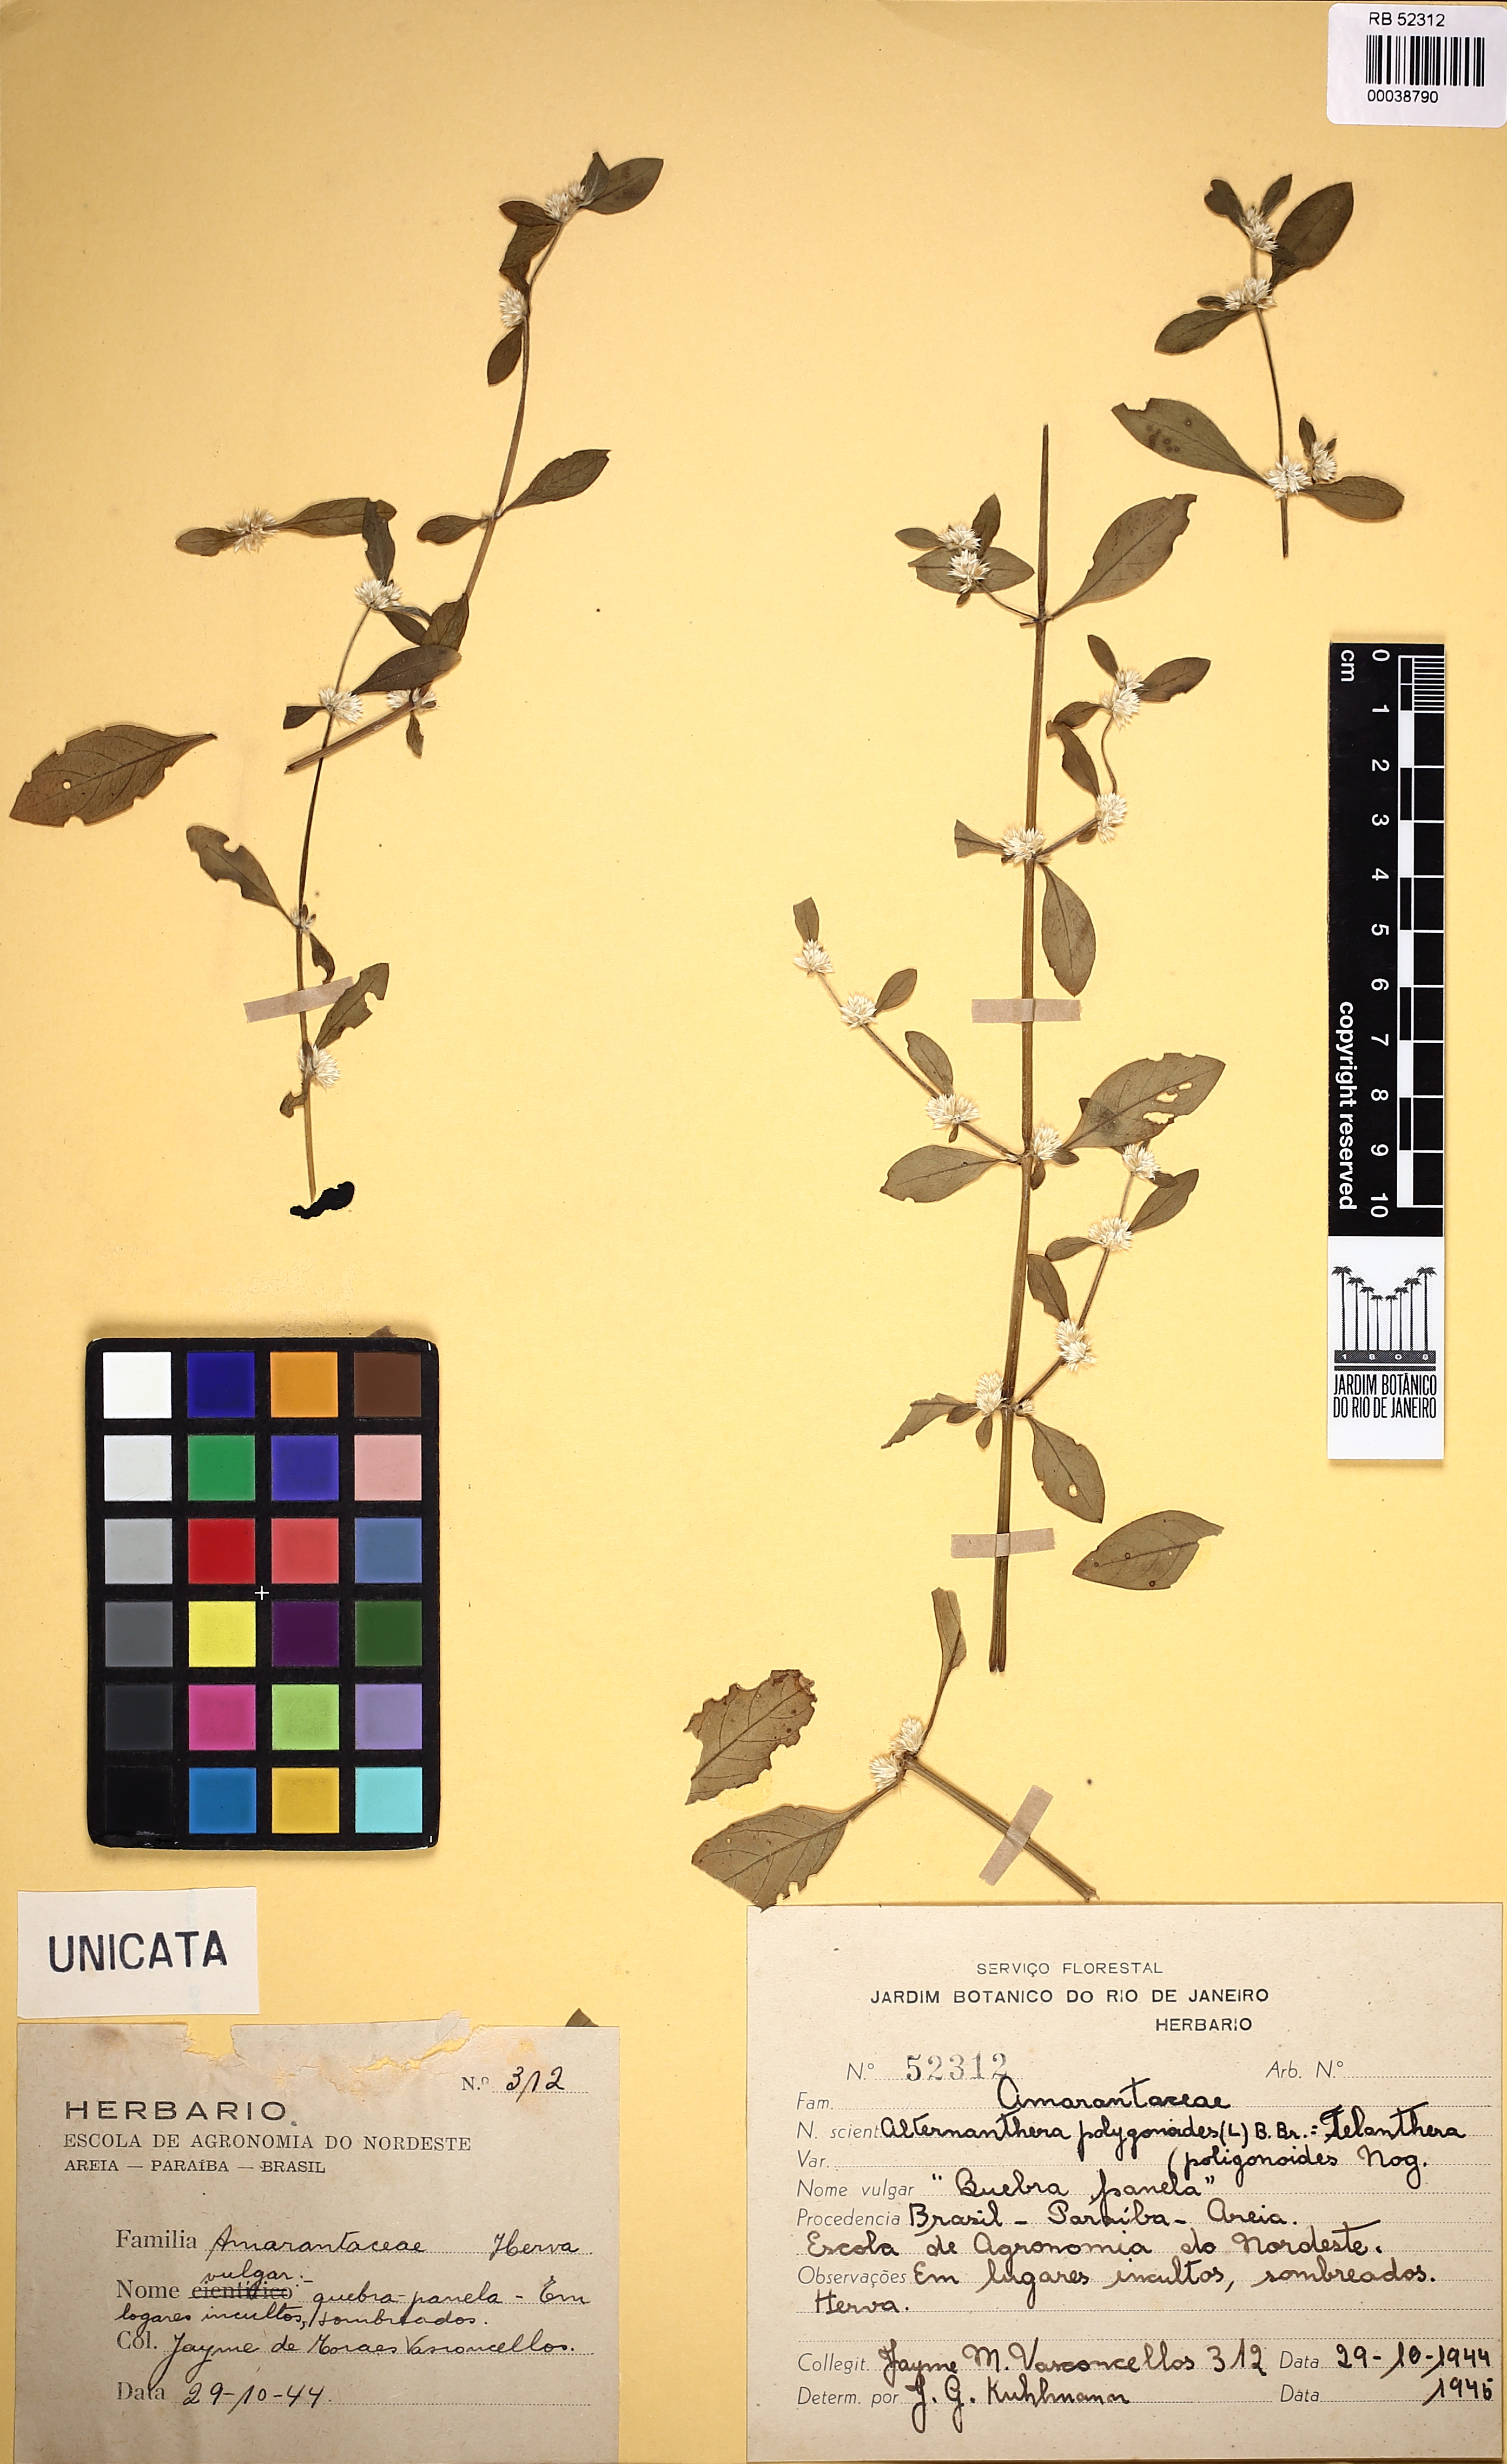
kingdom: Plantae
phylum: Tracheophyta
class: Magnoliopsida
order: Caryophyllales
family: Amaranthaceae
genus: Alternanthera
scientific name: Alternanthera ficoidea
